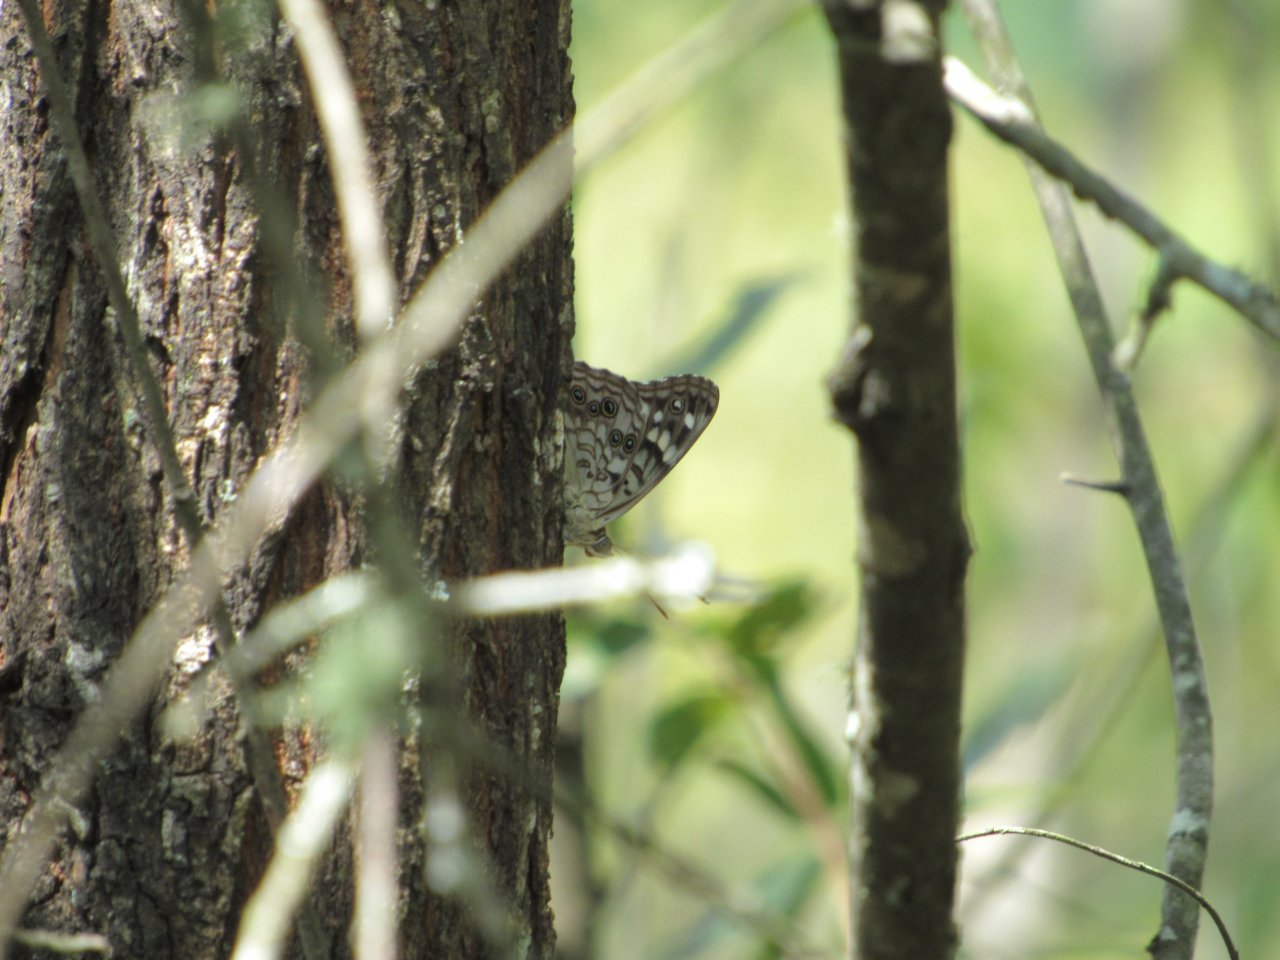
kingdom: Animalia
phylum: Arthropoda
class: Insecta
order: Lepidoptera
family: Nymphalidae
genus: Asterocampa
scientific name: Asterocampa celtis
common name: Hackberry Emperor
